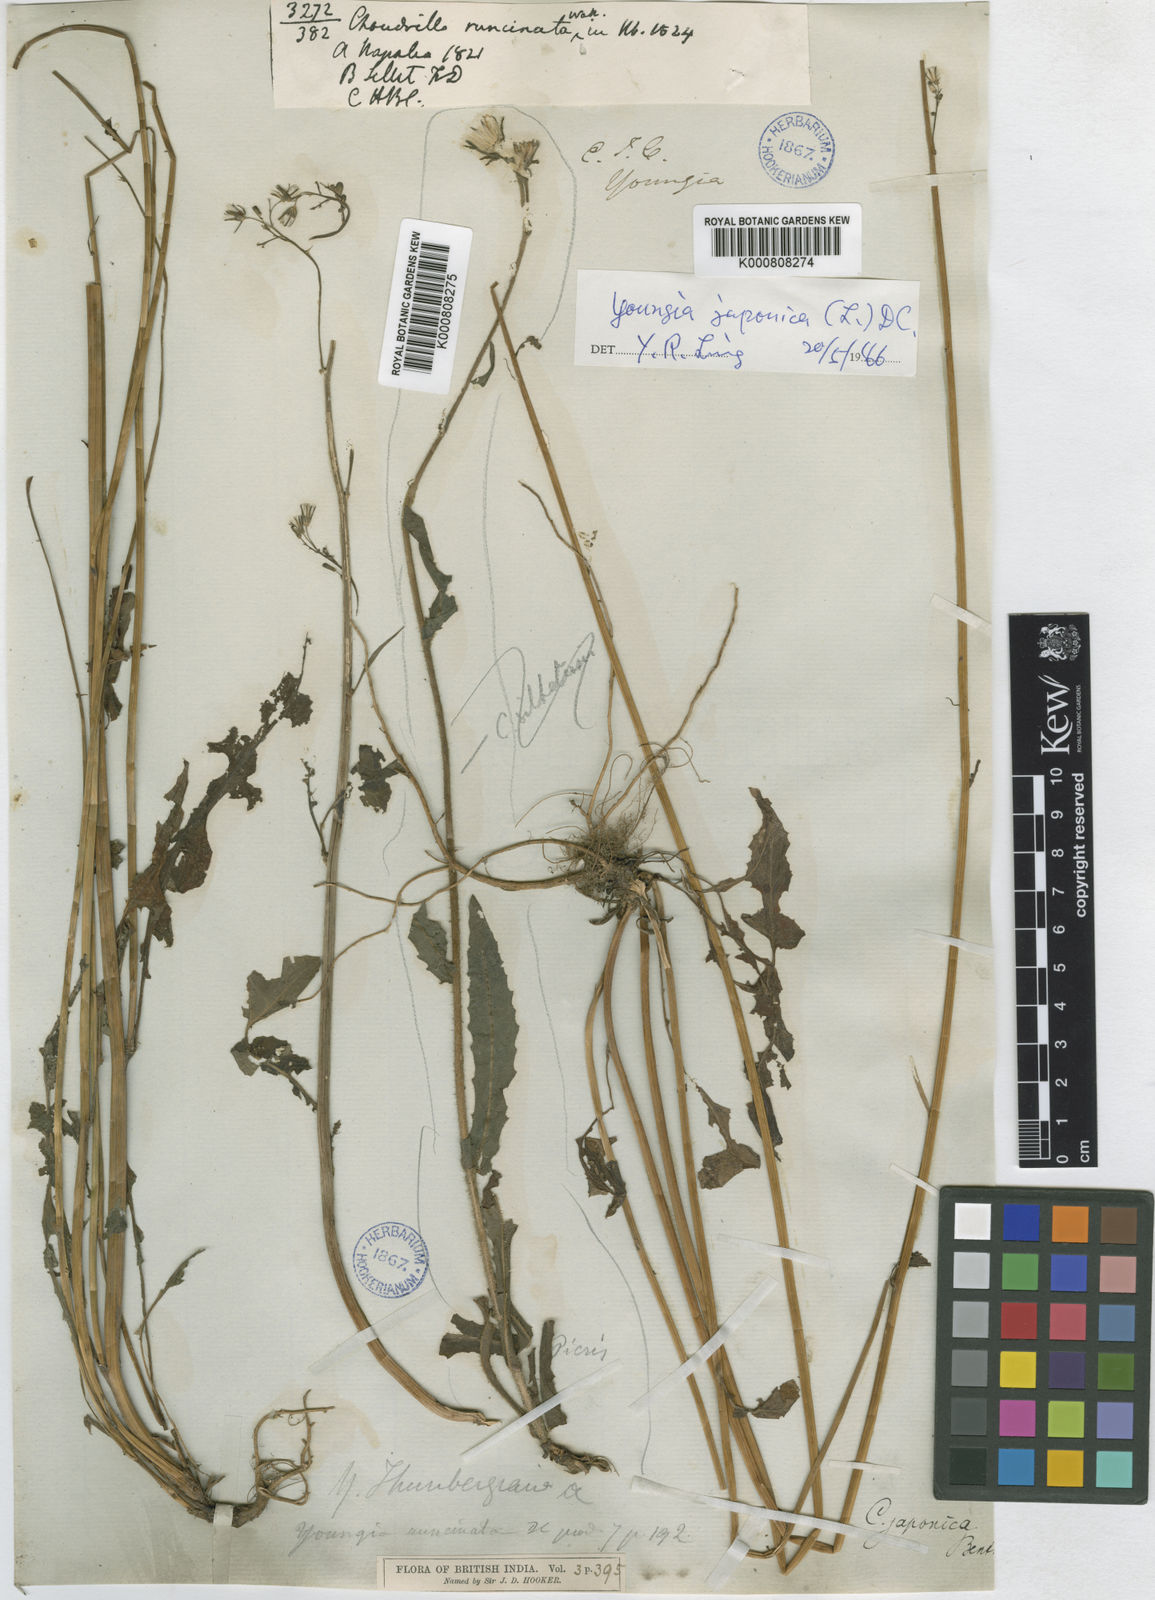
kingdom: Plantae
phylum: Tracheophyta
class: Magnoliopsida
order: Asterales
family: Asteraceae
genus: Youngia
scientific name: Youngia japonica
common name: Oriental false hawksbeard
